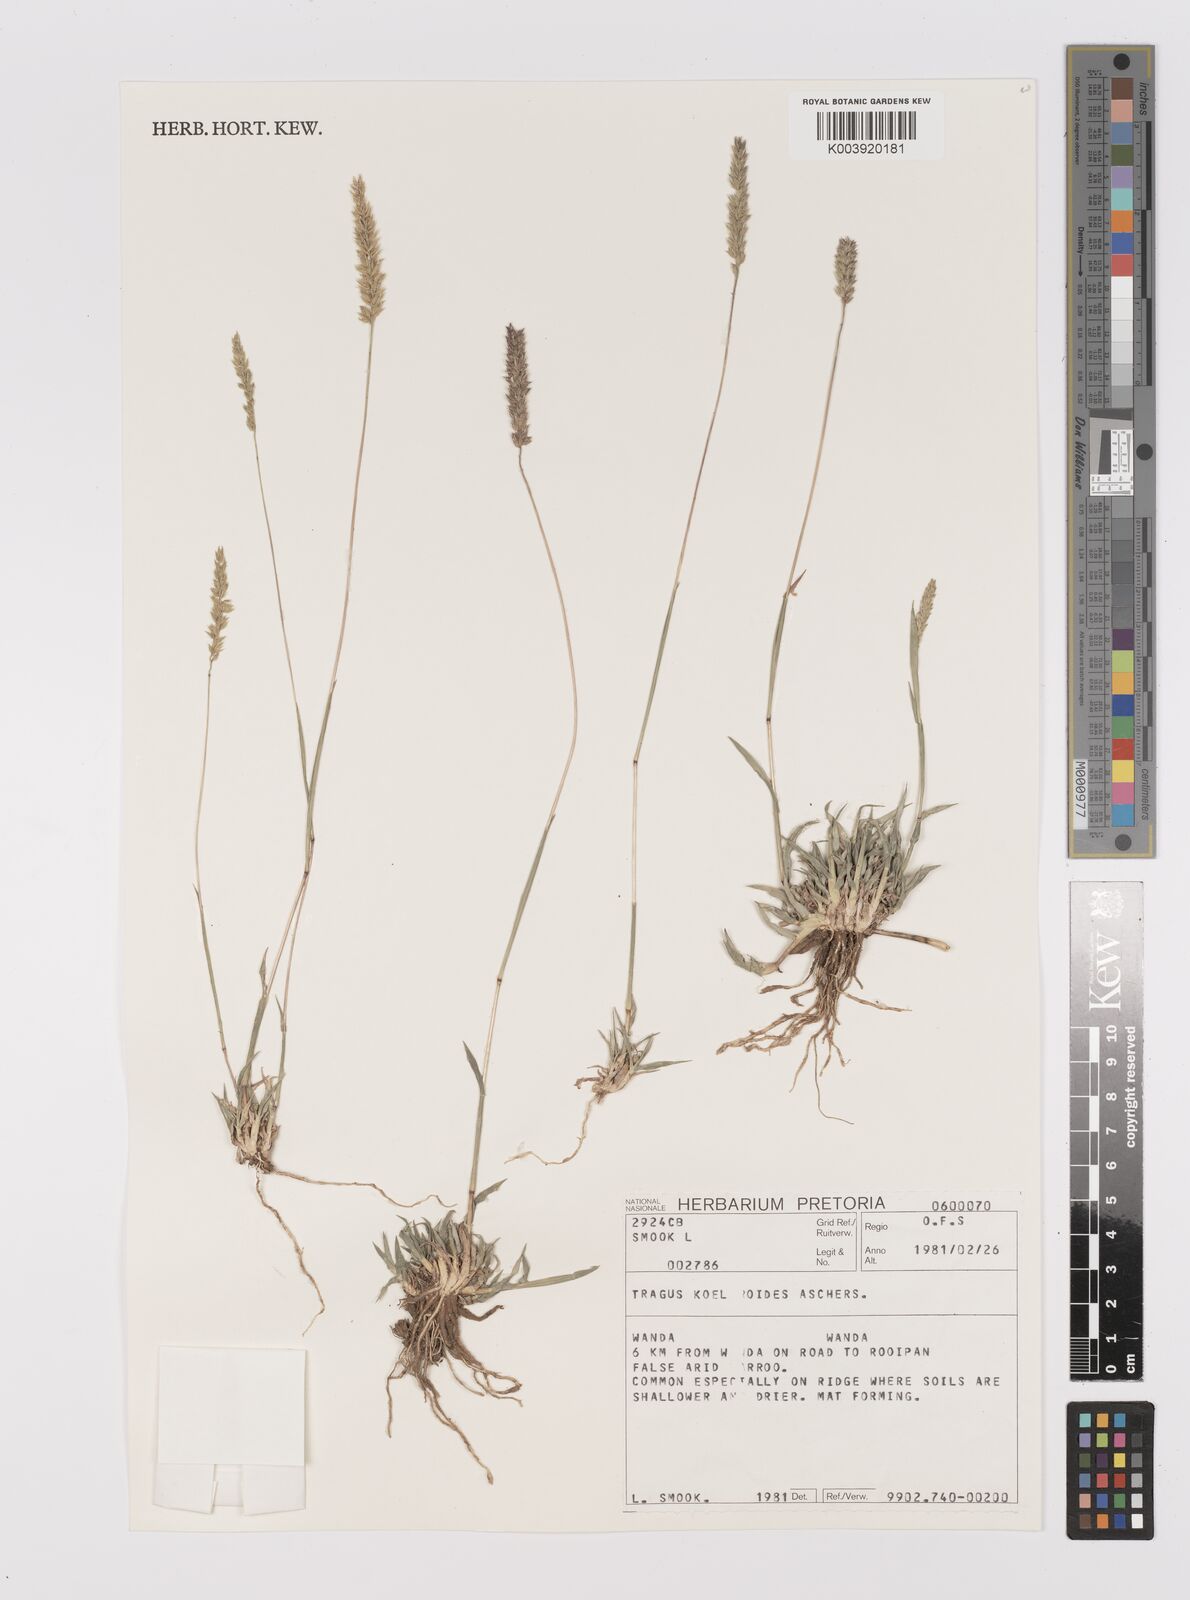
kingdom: Plantae
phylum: Tracheophyta
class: Liliopsida
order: Poales
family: Poaceae
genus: Tragus
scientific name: Tragus koelerioides
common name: Creeping carrot-seed grass
